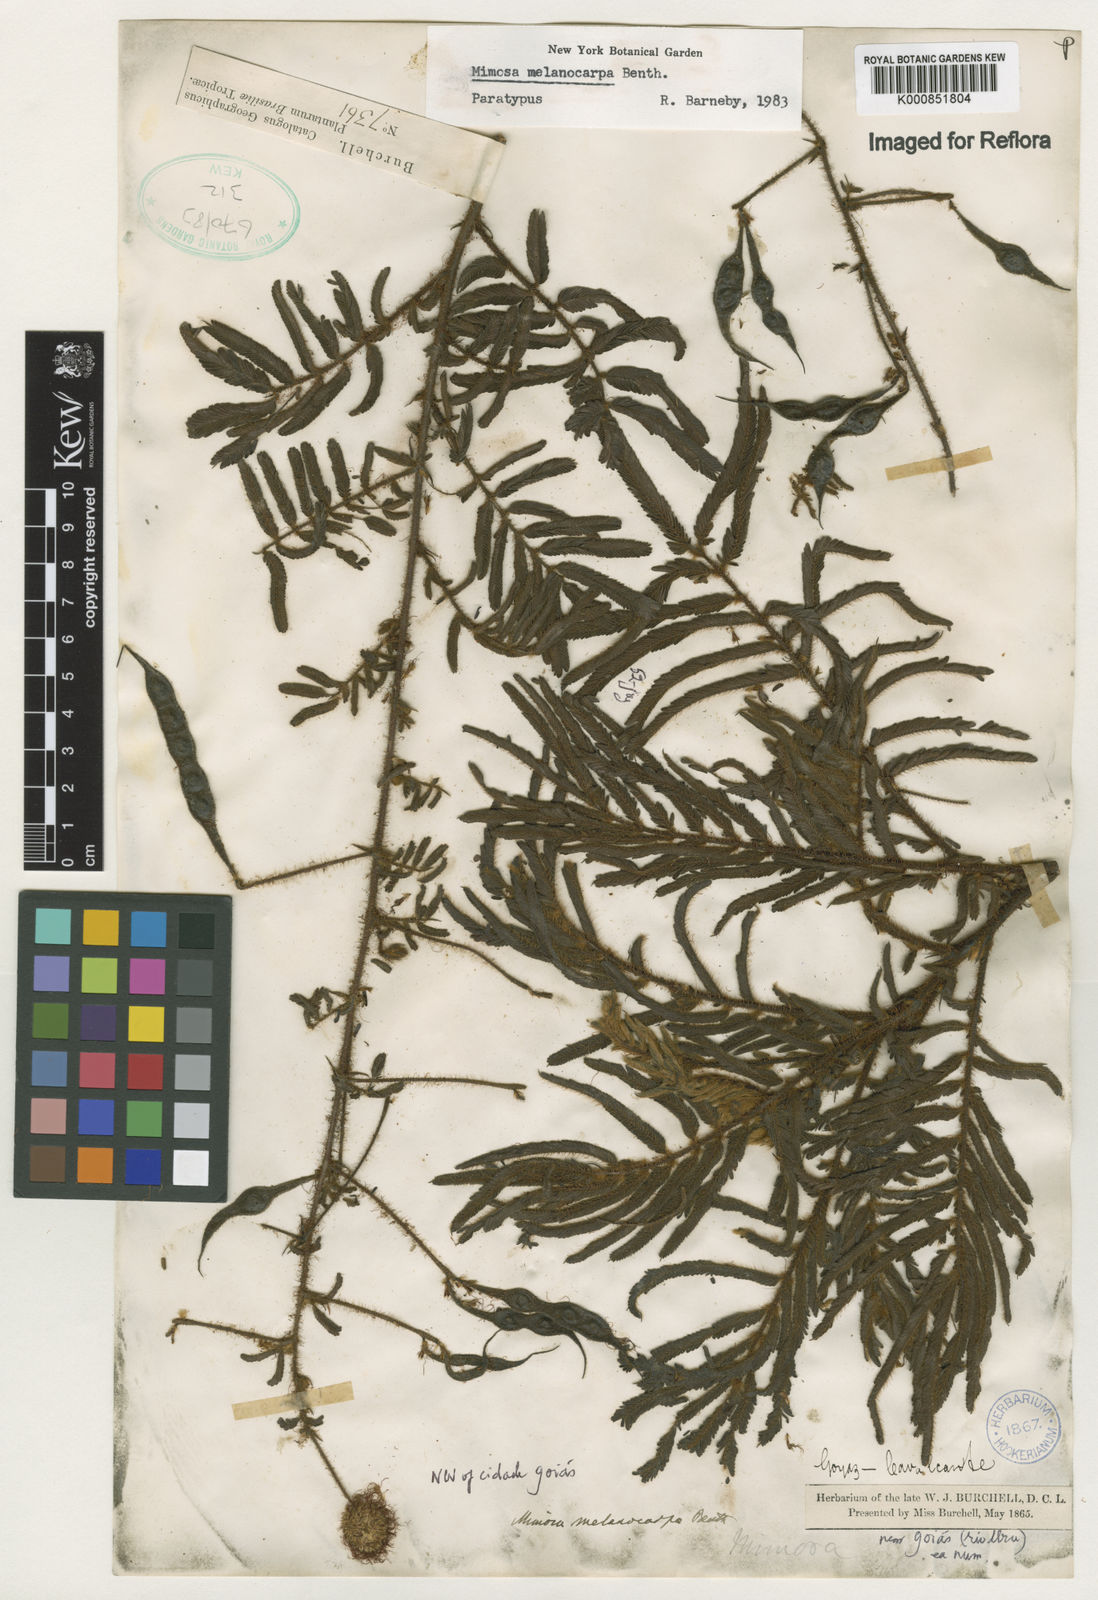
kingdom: Plantae
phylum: Tracheophyta
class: Magnoliopsida
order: Fabales
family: Fabaceae
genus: Mimosa
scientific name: Mimosa melanocarpa
